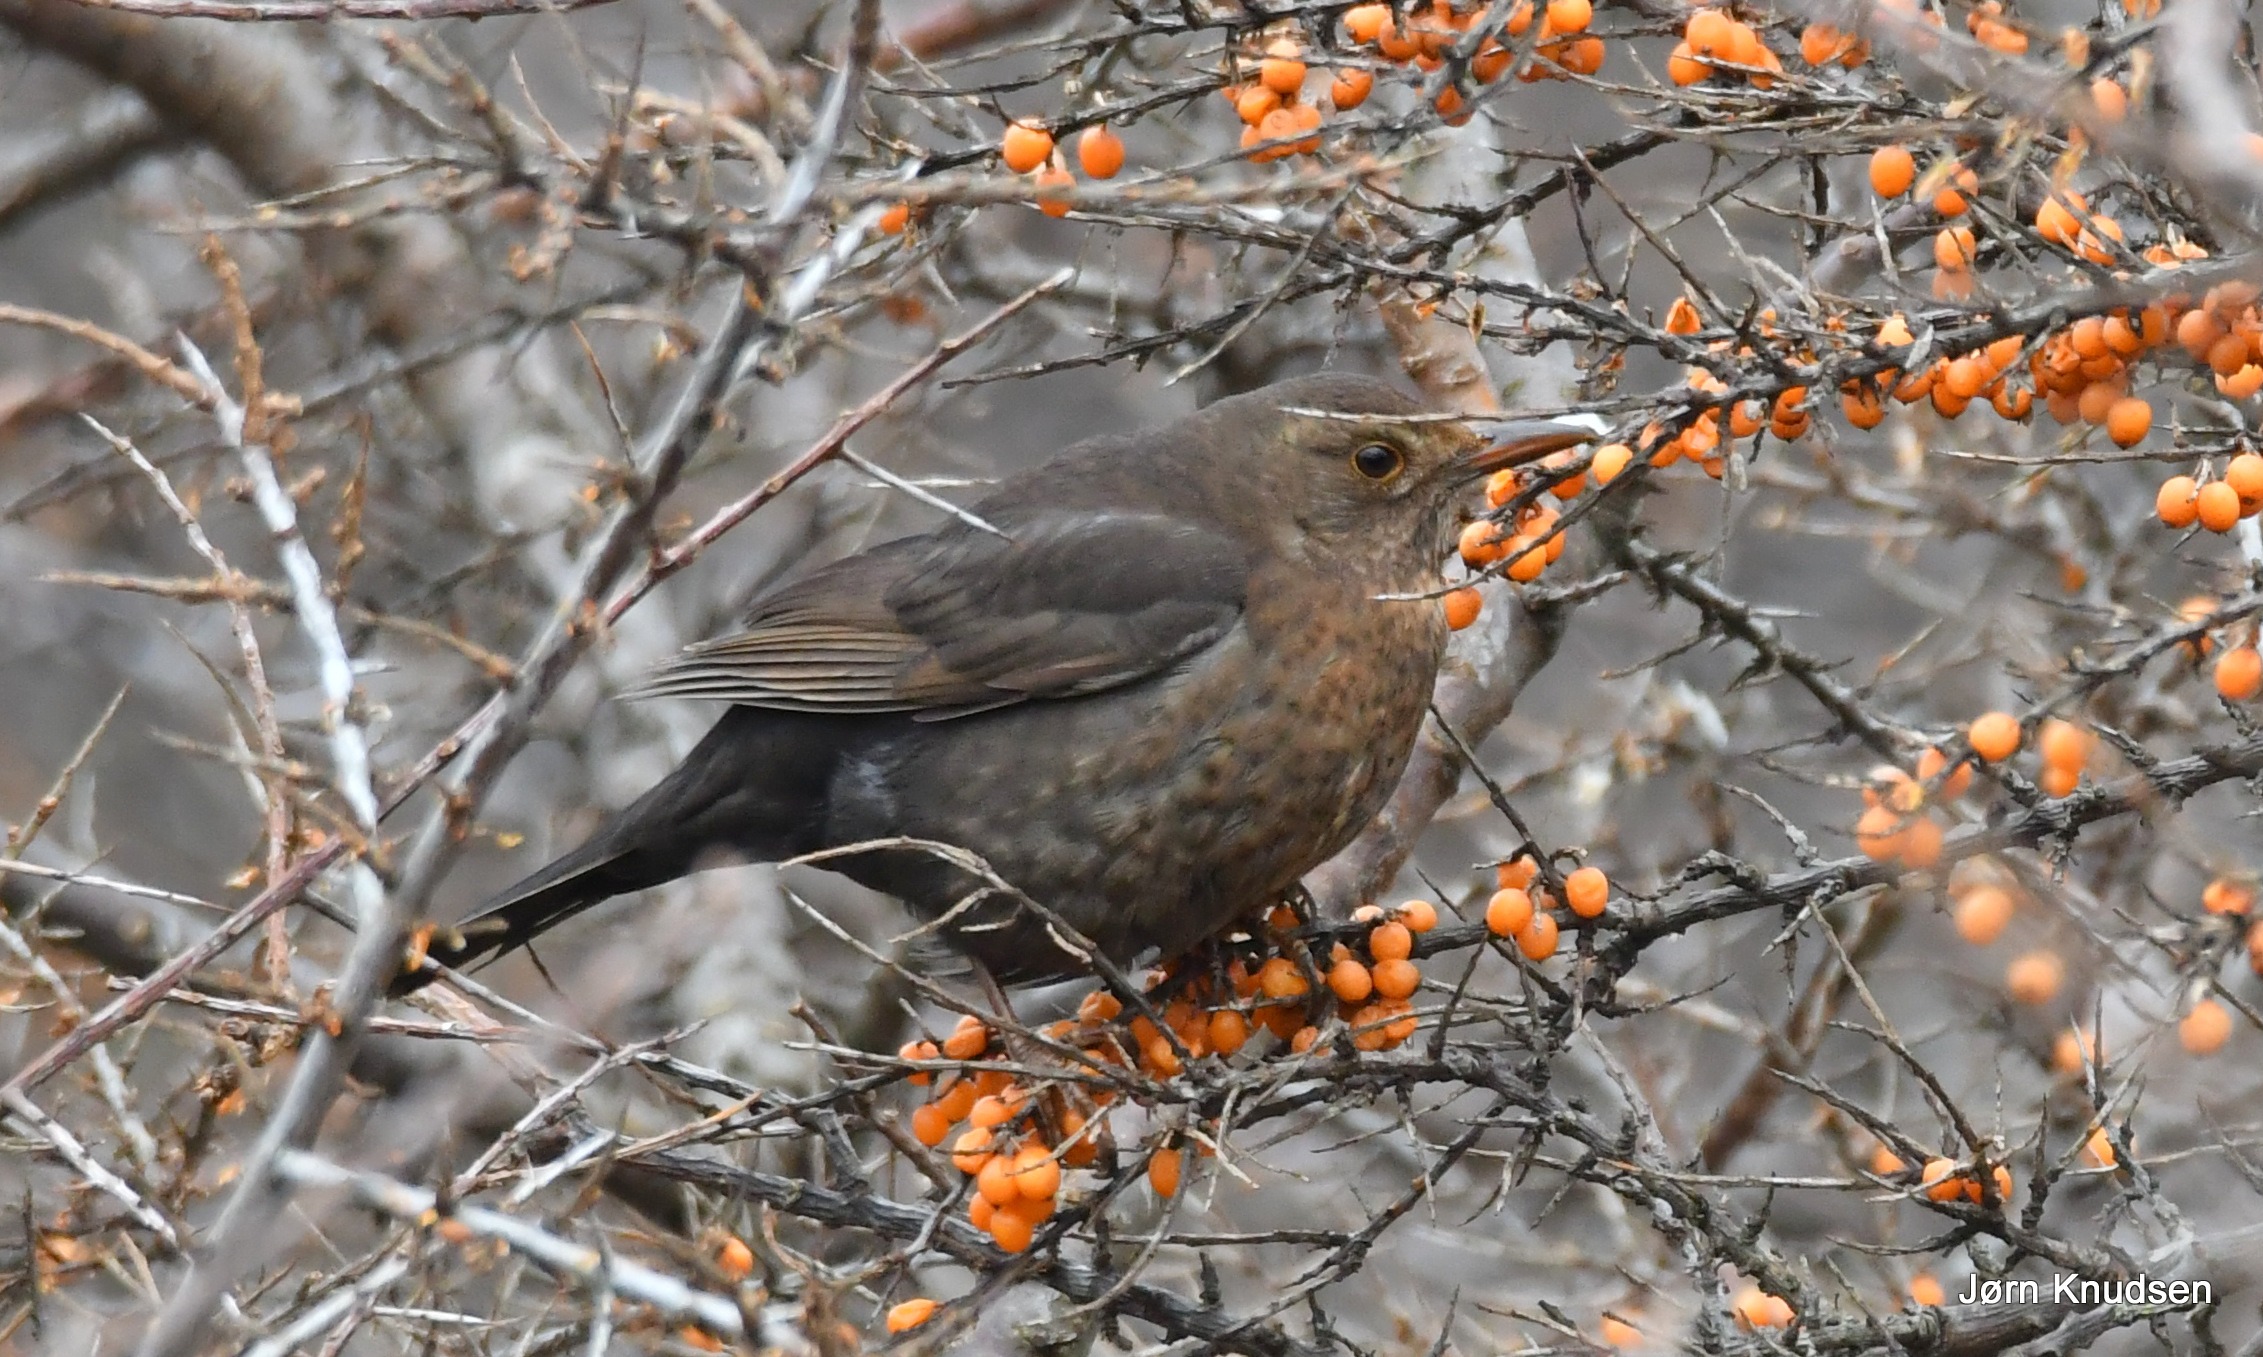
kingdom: Animalia
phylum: Chordata
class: Aves
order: Passeriformes
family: Turdidae
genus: Turdus
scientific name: Turdus merula
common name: Solsort
